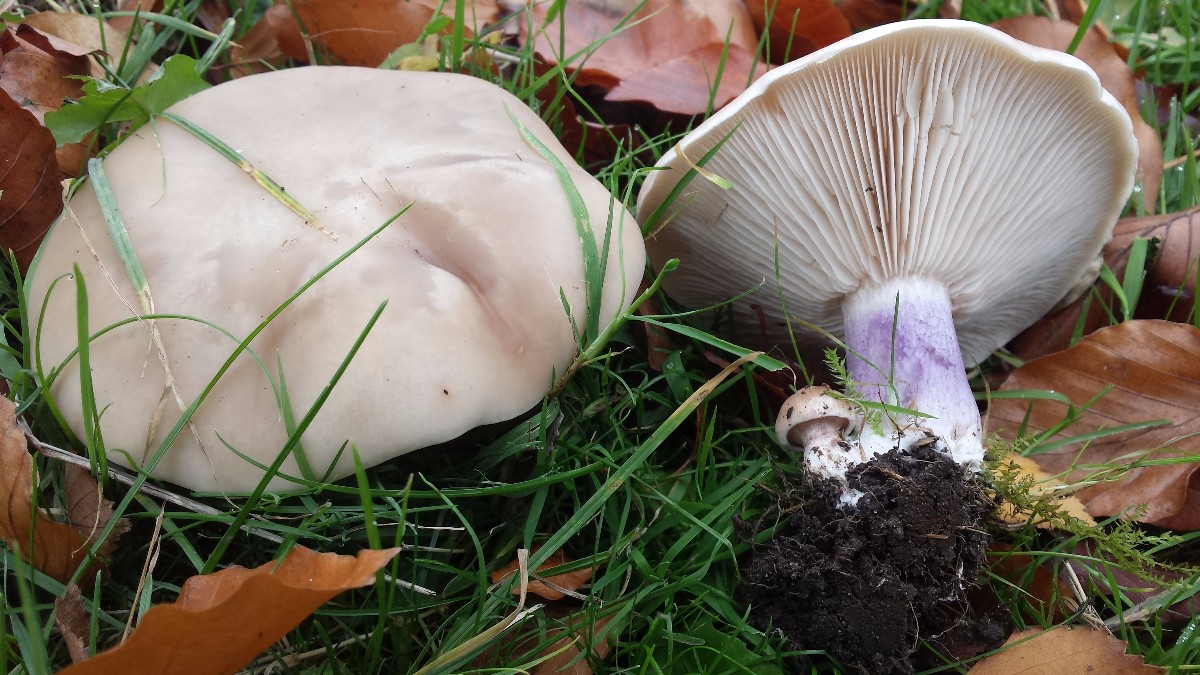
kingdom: Fungi
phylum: Basidiomycota
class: Agaricomycetes
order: Agaricales
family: Tricholomataceae
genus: Lepista
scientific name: Lepista personata
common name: bleg hekseringshat
